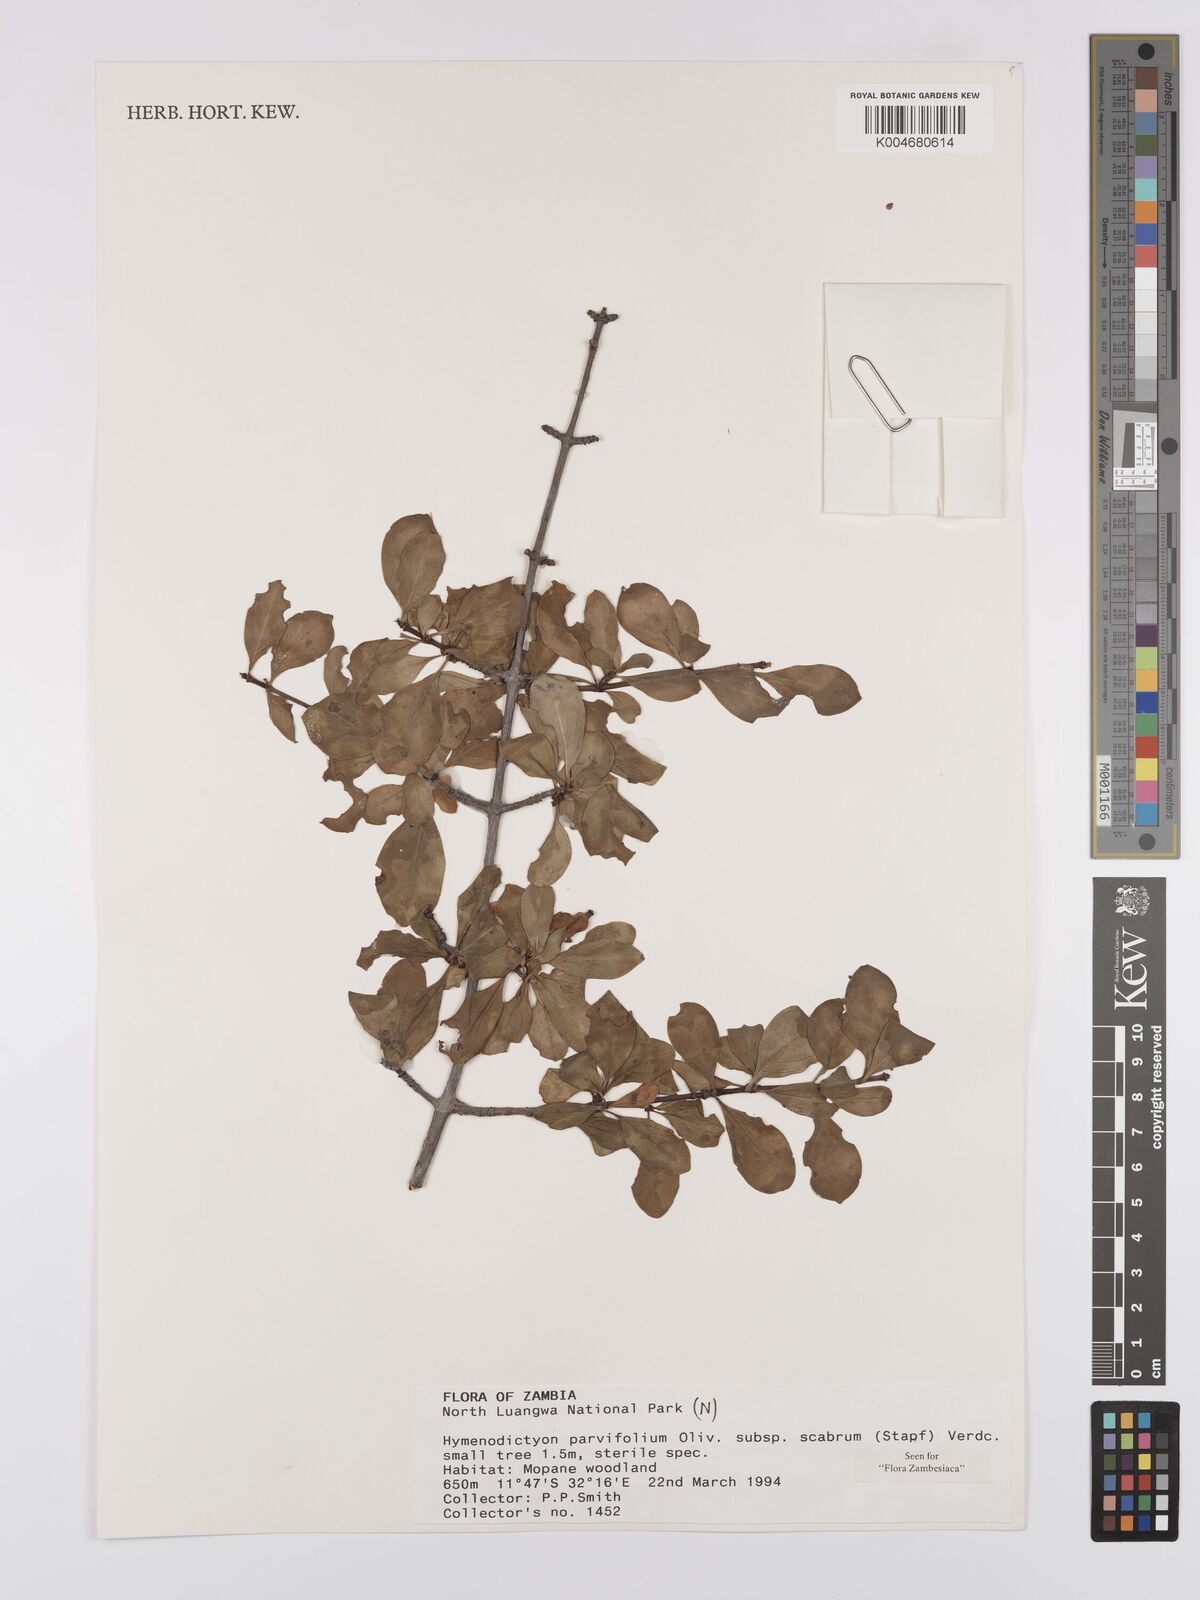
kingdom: Plantae
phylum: Tracheophyta
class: Magnoliopsida
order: Gentianales
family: Rubiaceae
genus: Hymenodictyon
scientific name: Hymenodictyon scabrum
